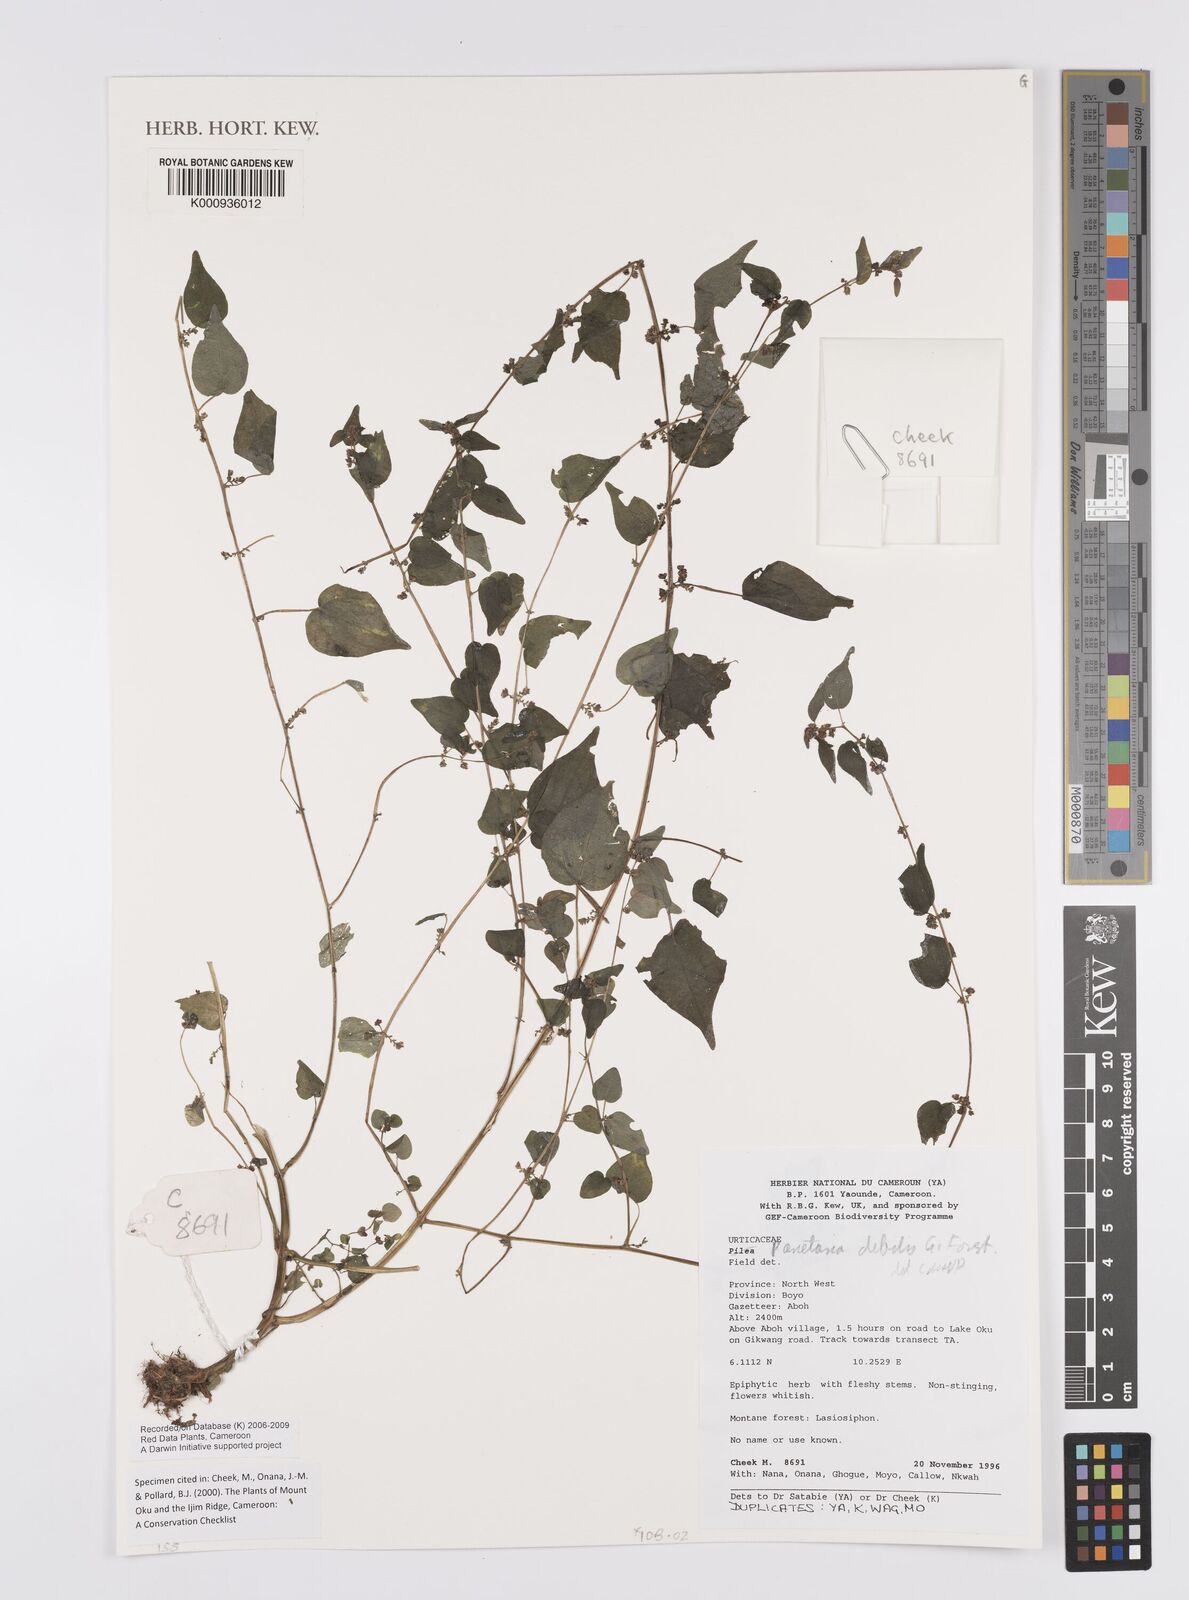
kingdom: Plantae
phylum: Tracheophyta
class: Magnoliopsida
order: Rosales
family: Urticaceae
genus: Parietaria
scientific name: Parietaria debilis
